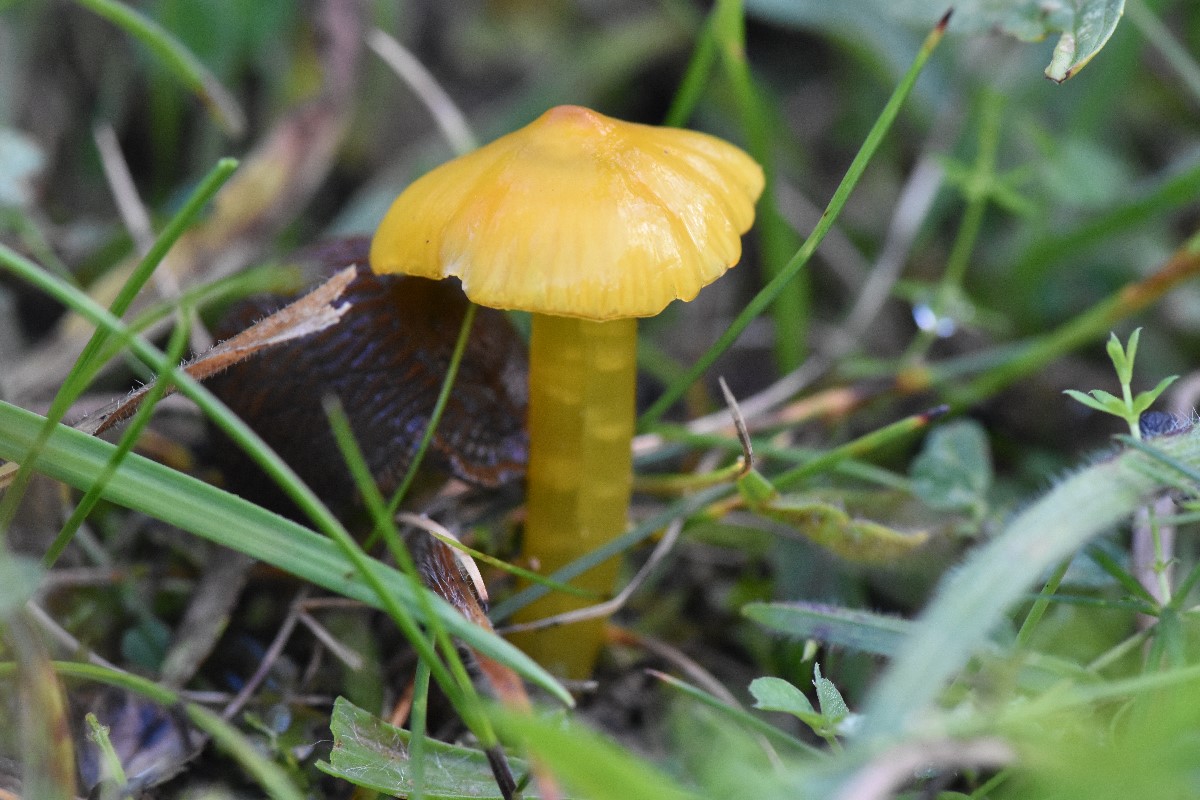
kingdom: Fungi
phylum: Basidiomycota
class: Agaricomycetes
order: Agaricales
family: Hygrophoraceae
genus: Hygrocybe
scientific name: Hygrocybe acutoconica
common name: spidspuklet vokshat
